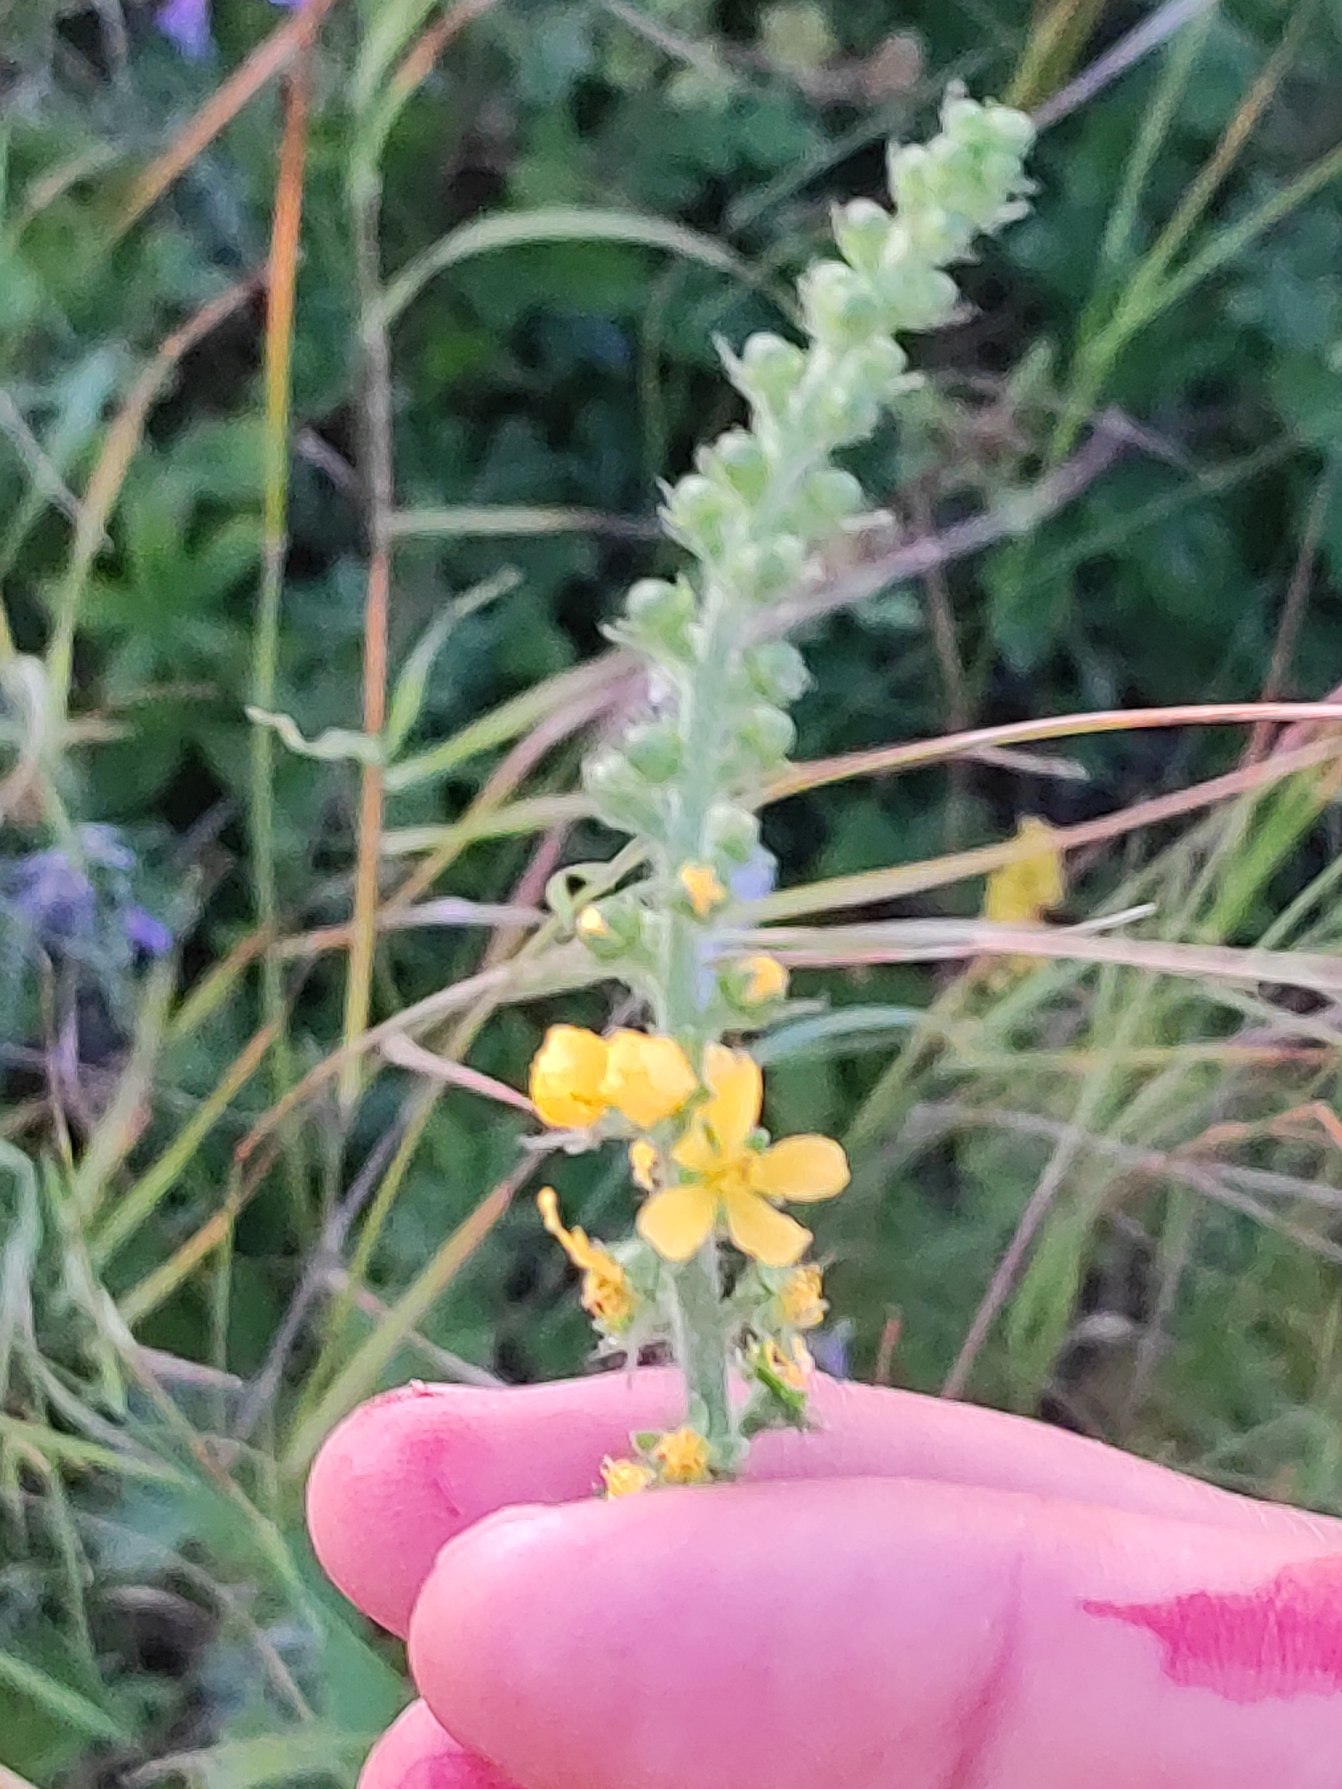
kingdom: Plantae
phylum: Tracheophyta
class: Magnoliopsida
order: Rosales
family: Rosaceae
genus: Agrimonia
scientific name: Agrimonia eupatoria
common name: Almindelig agermåne
